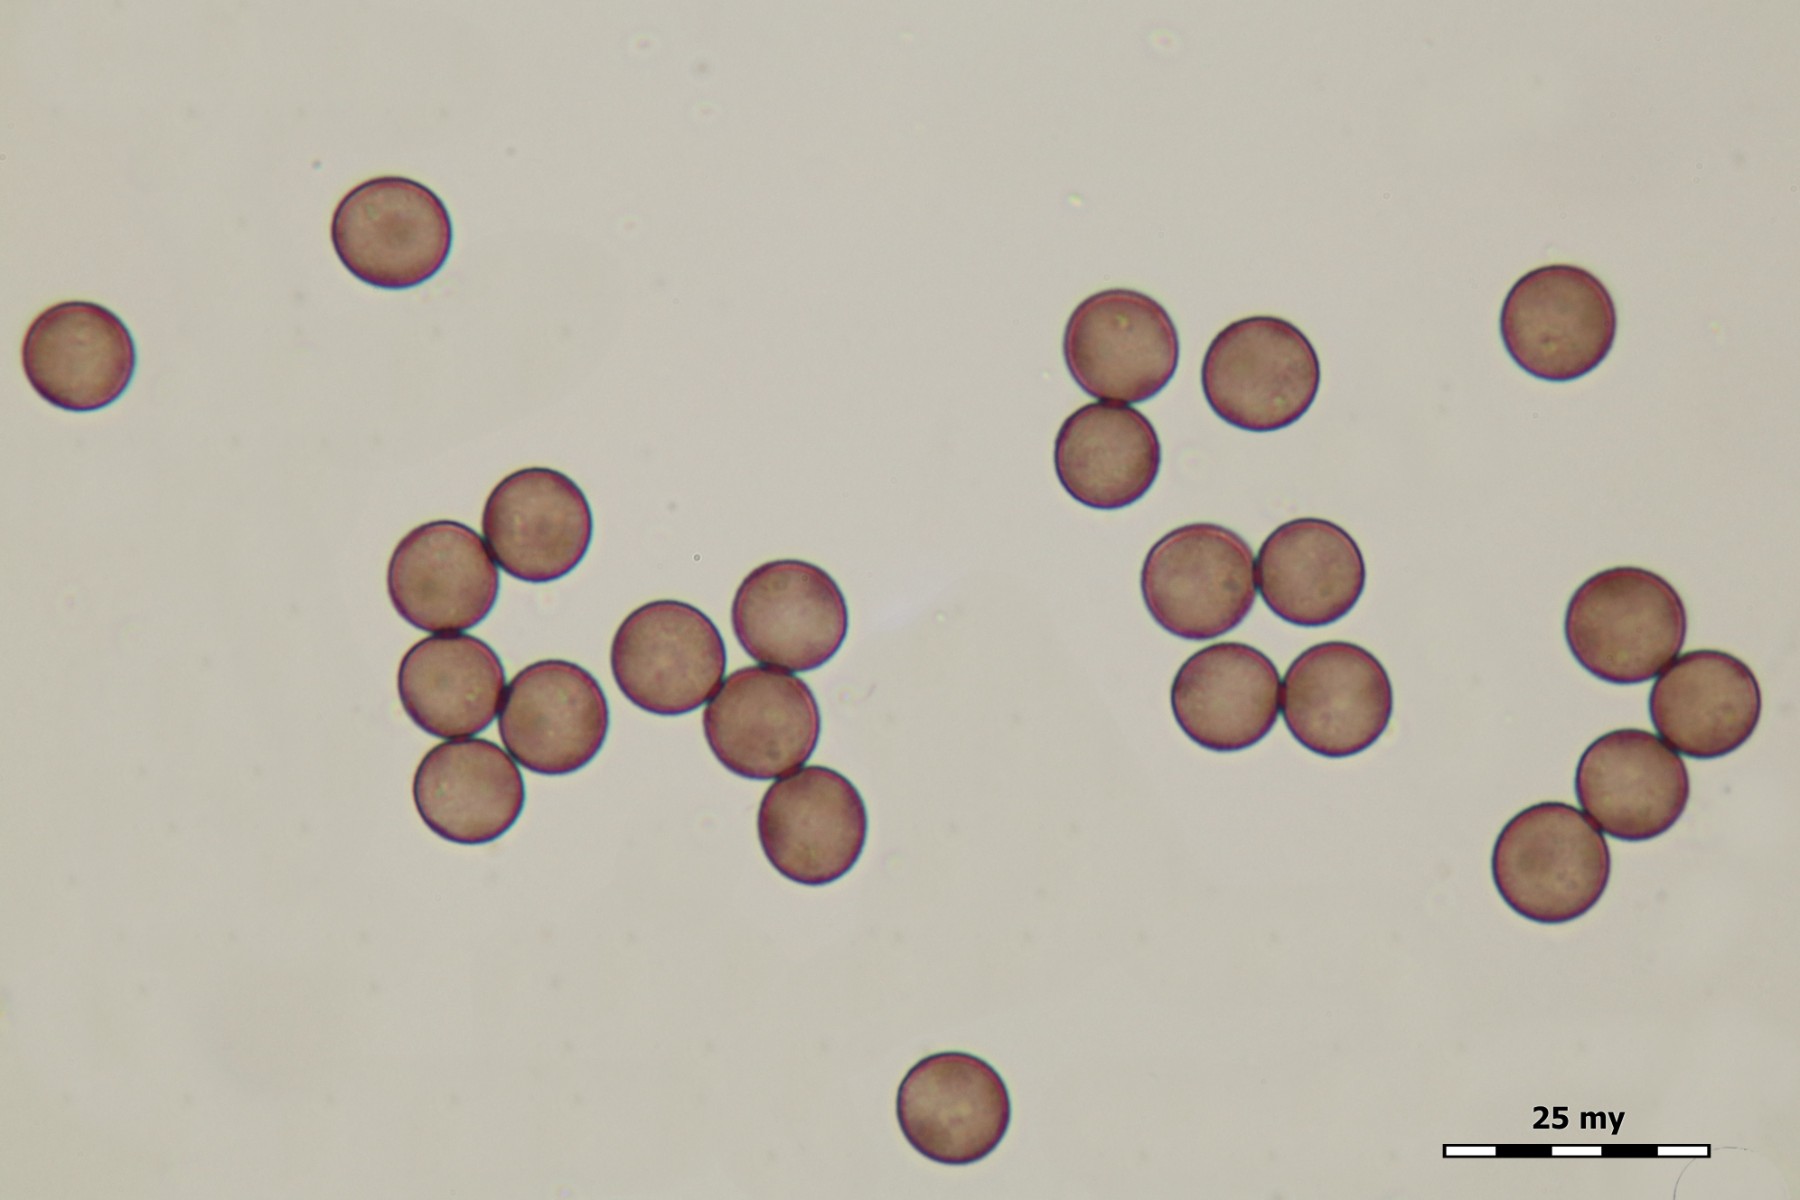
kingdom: Protozoa
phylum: Mycetozoa
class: Myxomycetes
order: Physarales
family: Physaraceae
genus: Physarum
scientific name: Physarum leucopus
